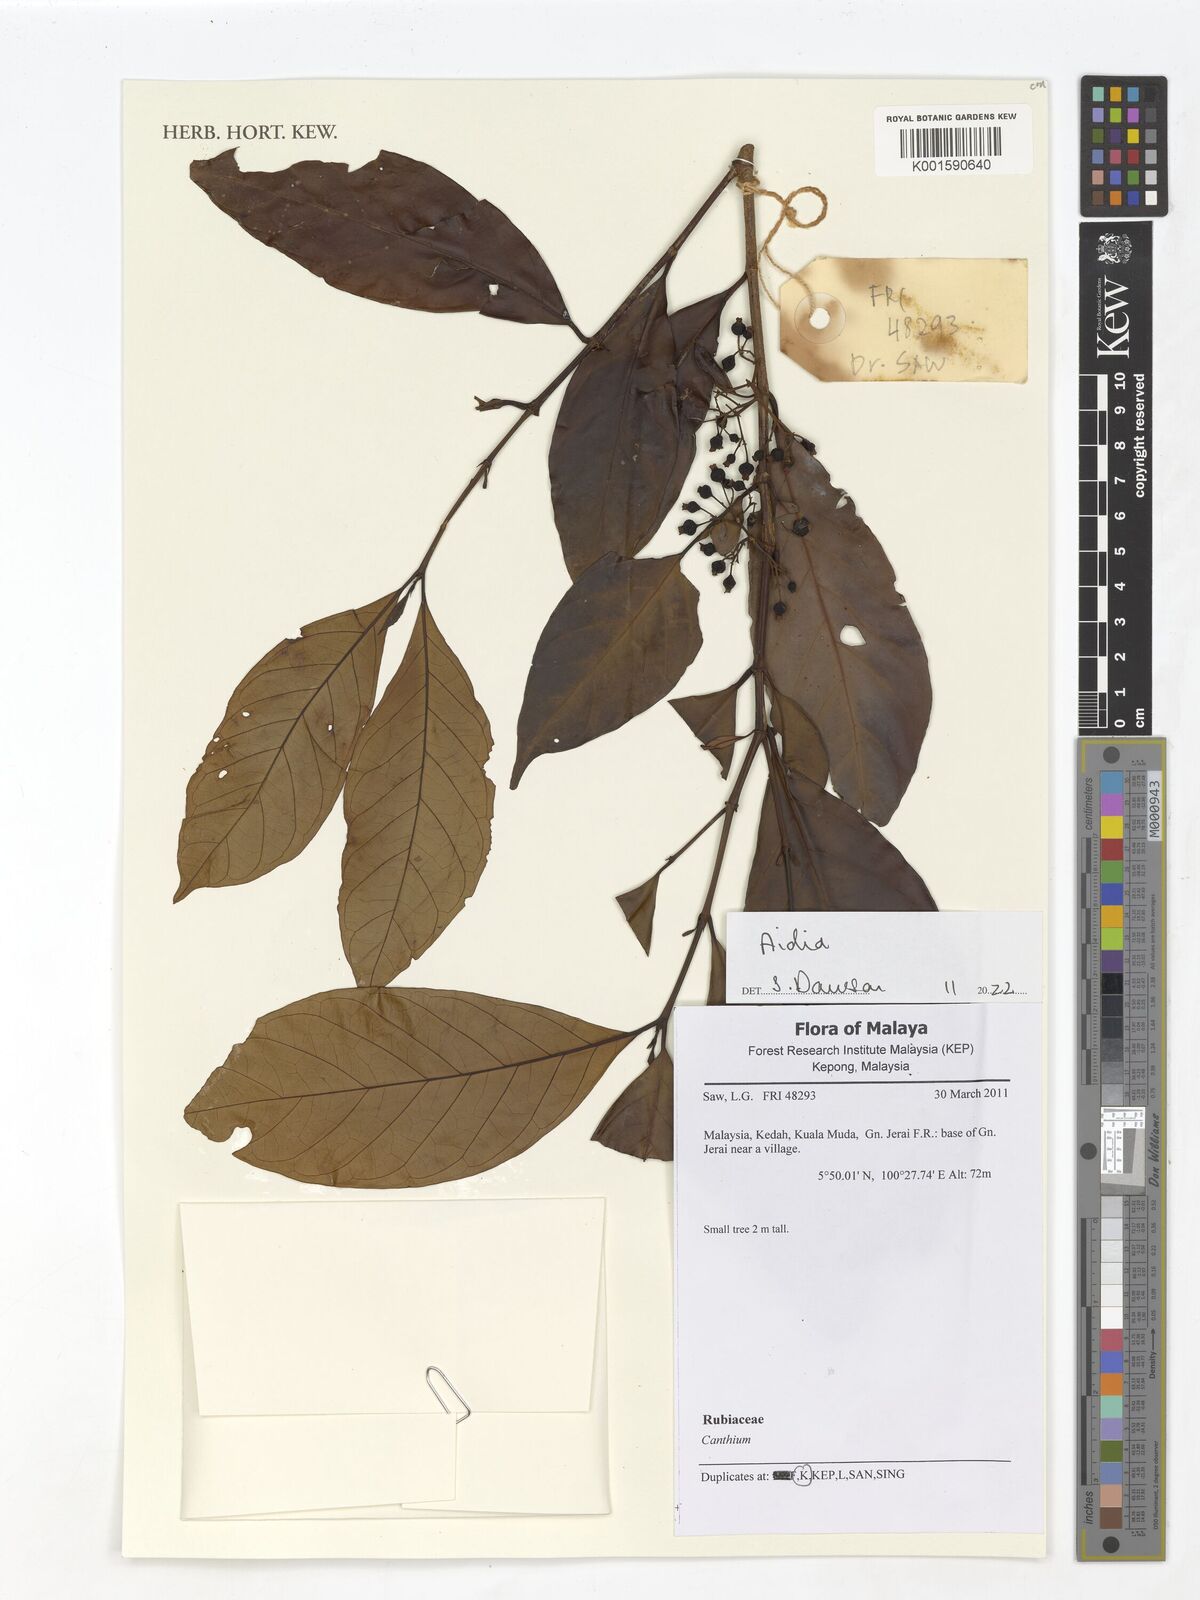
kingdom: Plantae
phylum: Tracheophyta
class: Magnoliopsida
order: Gentianales
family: Rubiaceae
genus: Aidia
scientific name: Aidia
